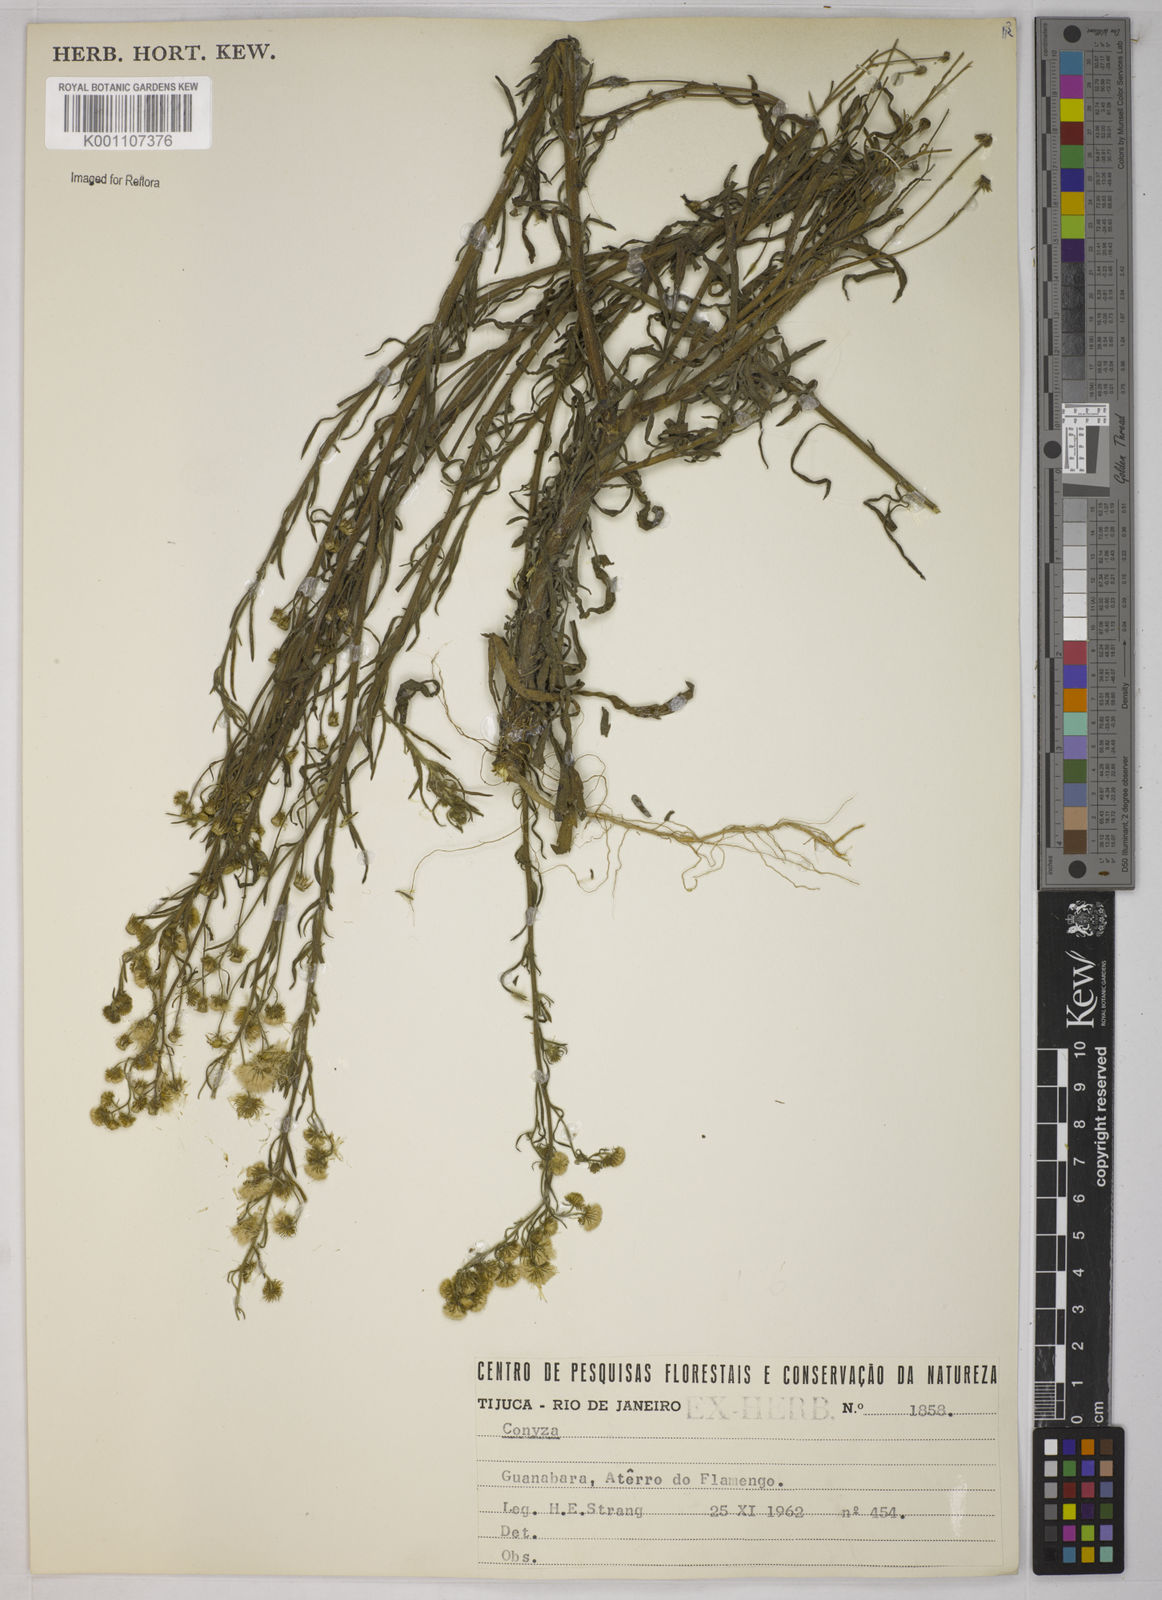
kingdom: Plantae
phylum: Tracheophyta
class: Magnoliopsida
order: Asterales
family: Asteraceae
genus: Erigeron
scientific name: Erigeron sumatrensis
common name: Daisy
